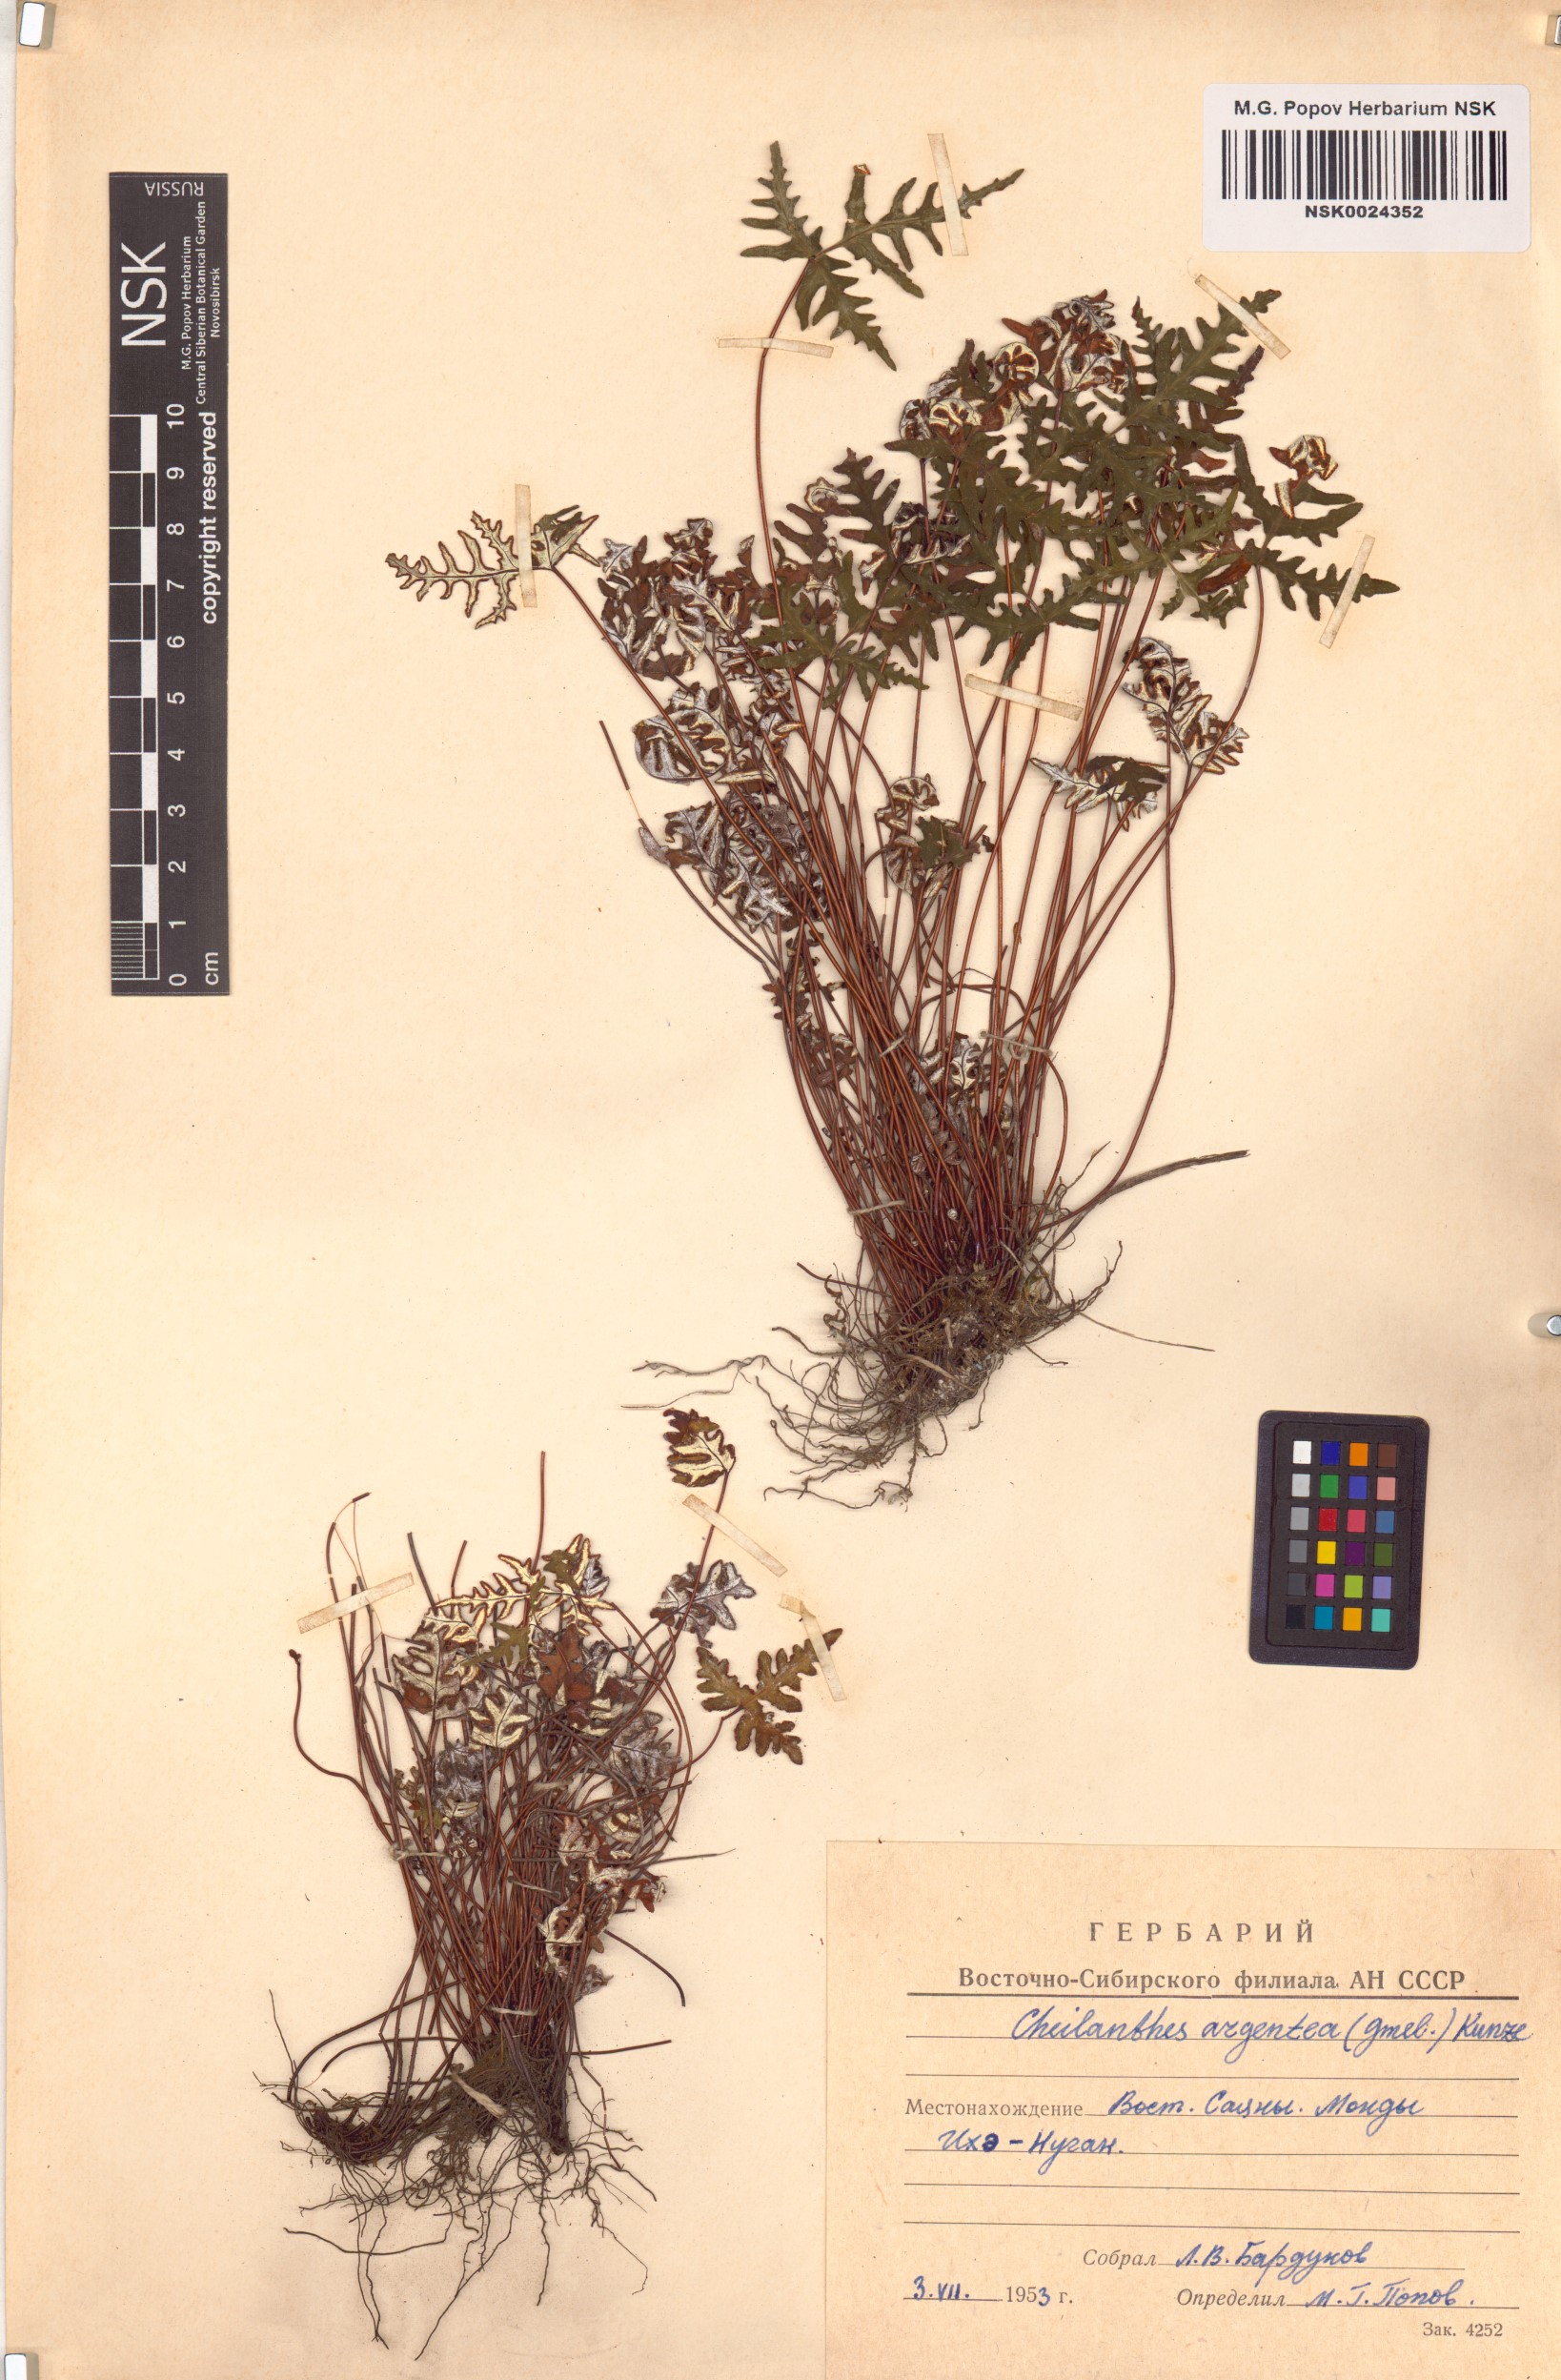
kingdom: Plantae
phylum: Tracheophyta
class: Polypodiopsida
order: Polypodiales
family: Pteridaceae
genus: Aleuritopteris
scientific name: Aleuritopteris argentea
